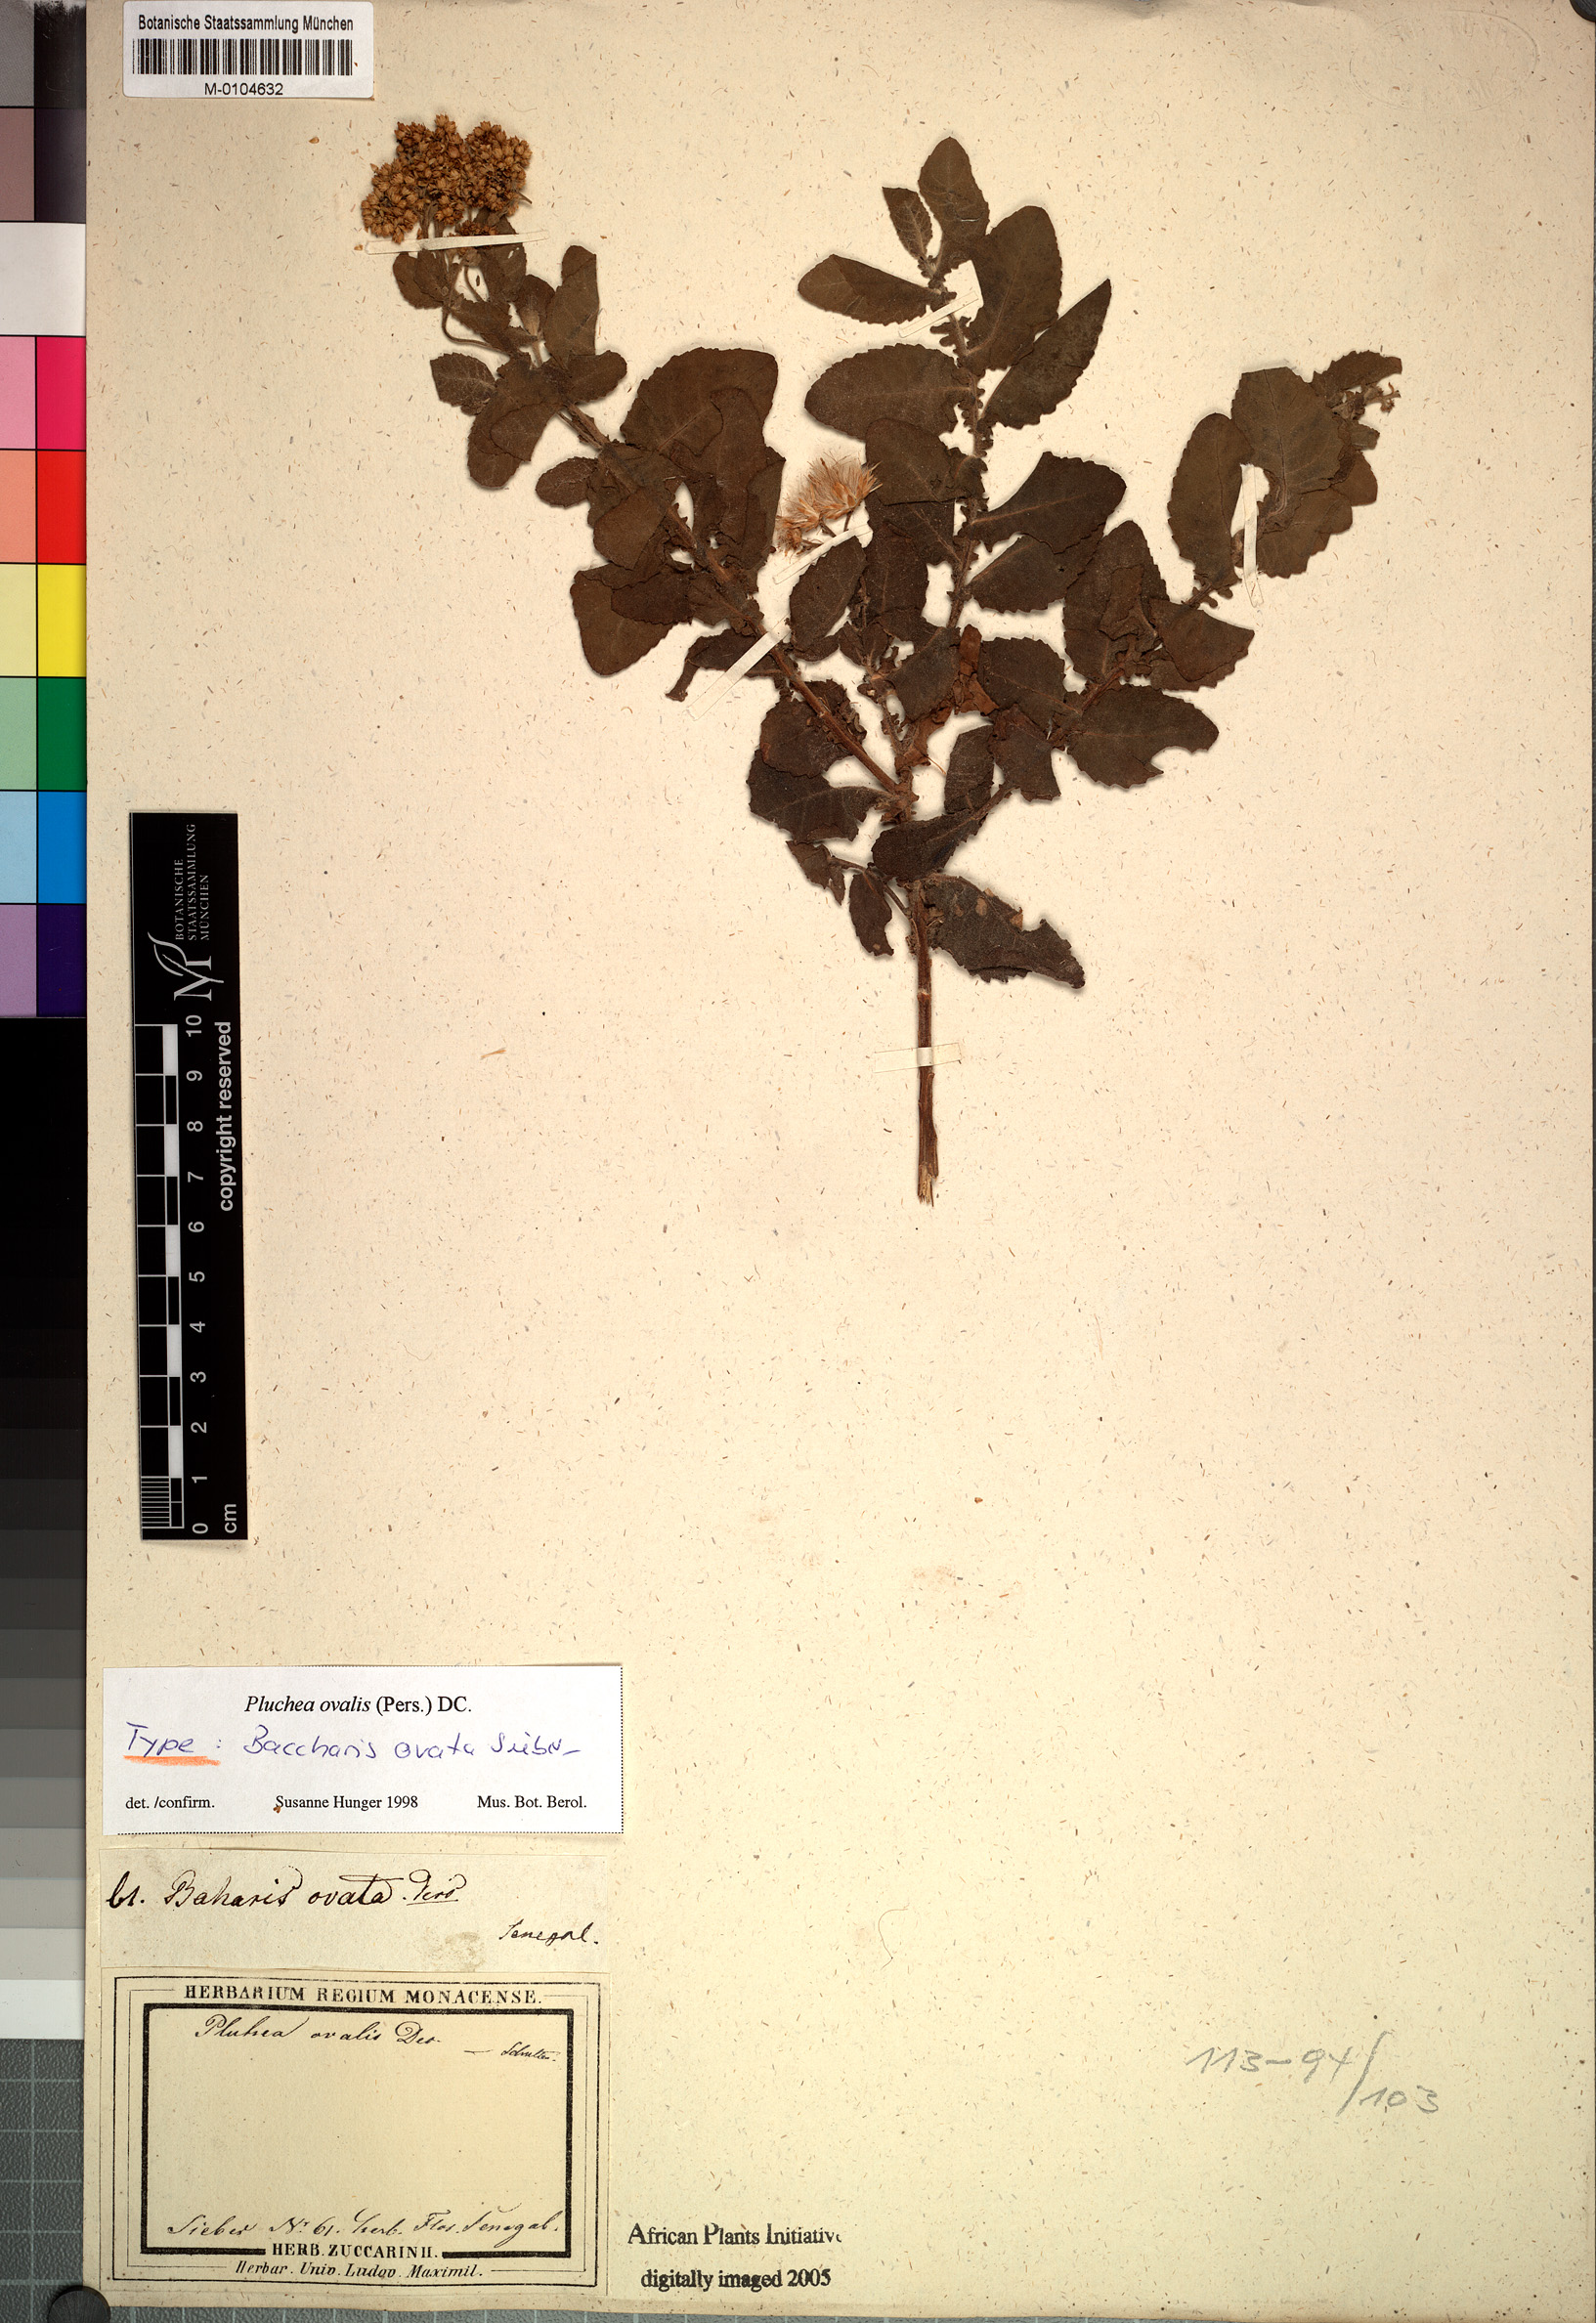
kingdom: Plantae
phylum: Tracheophyta
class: Magnoliopsida
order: Asterales
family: Asteraceae
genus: Pluchea
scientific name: Pluchea ovalis
